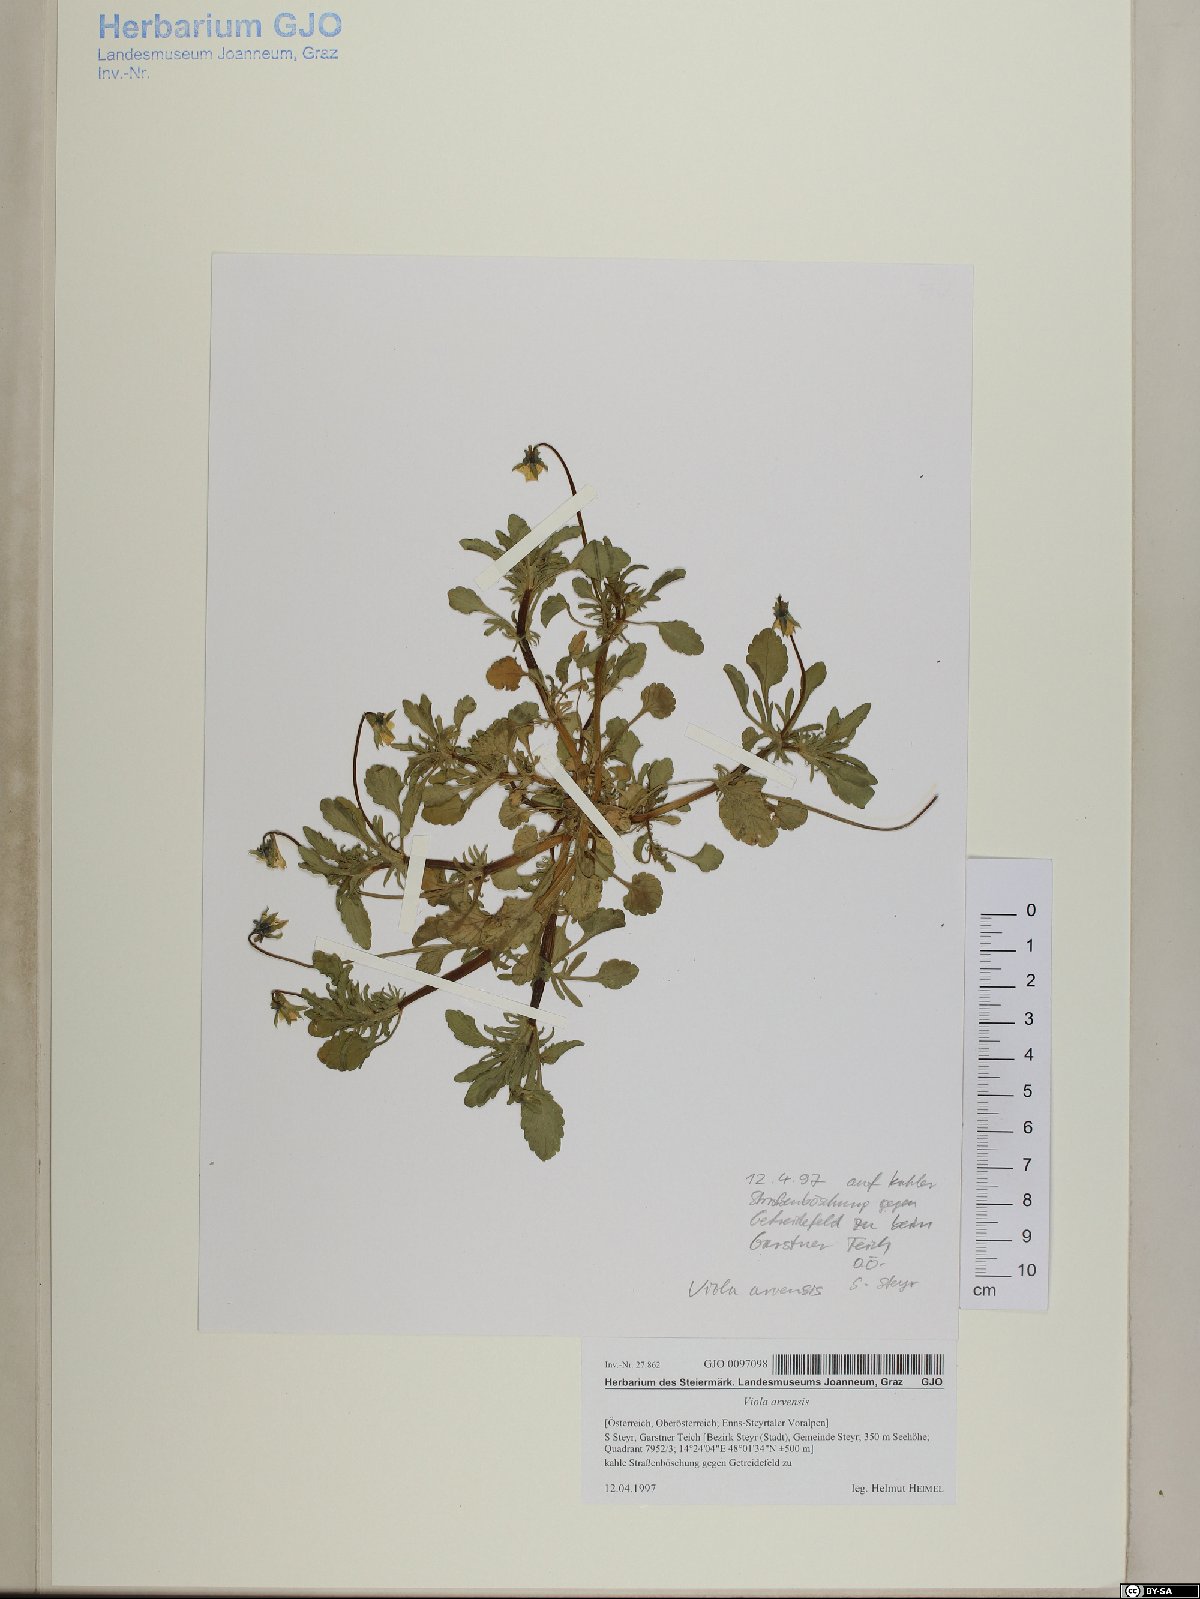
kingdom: Plantae
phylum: Tracheophyta
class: Magnoliopsida
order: Malpighiales
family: Violaceae
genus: Viola
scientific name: Viola arvensis
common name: Field pansy
